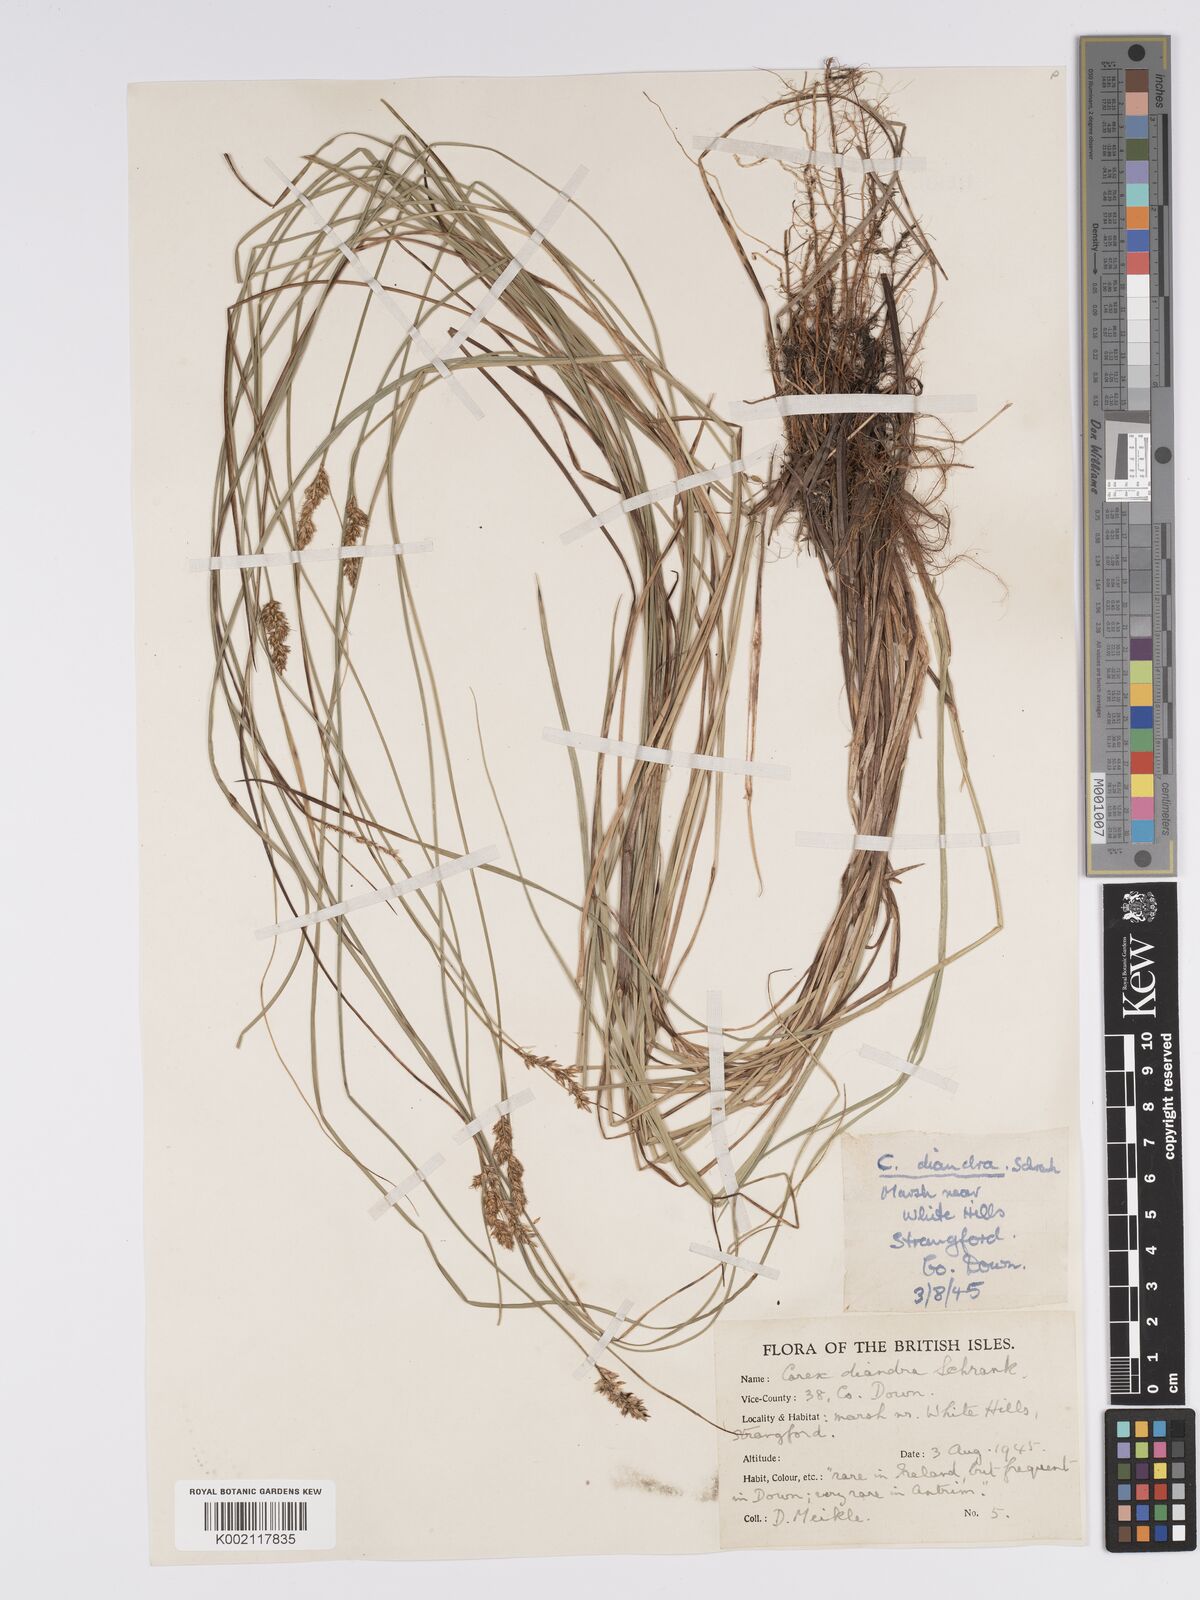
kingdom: Plantae
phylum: Tracheophyta
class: Liliopsida
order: Poales
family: Cyperaceae
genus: Carex
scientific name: Carex diandra
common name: Lesser tussock-sedge
